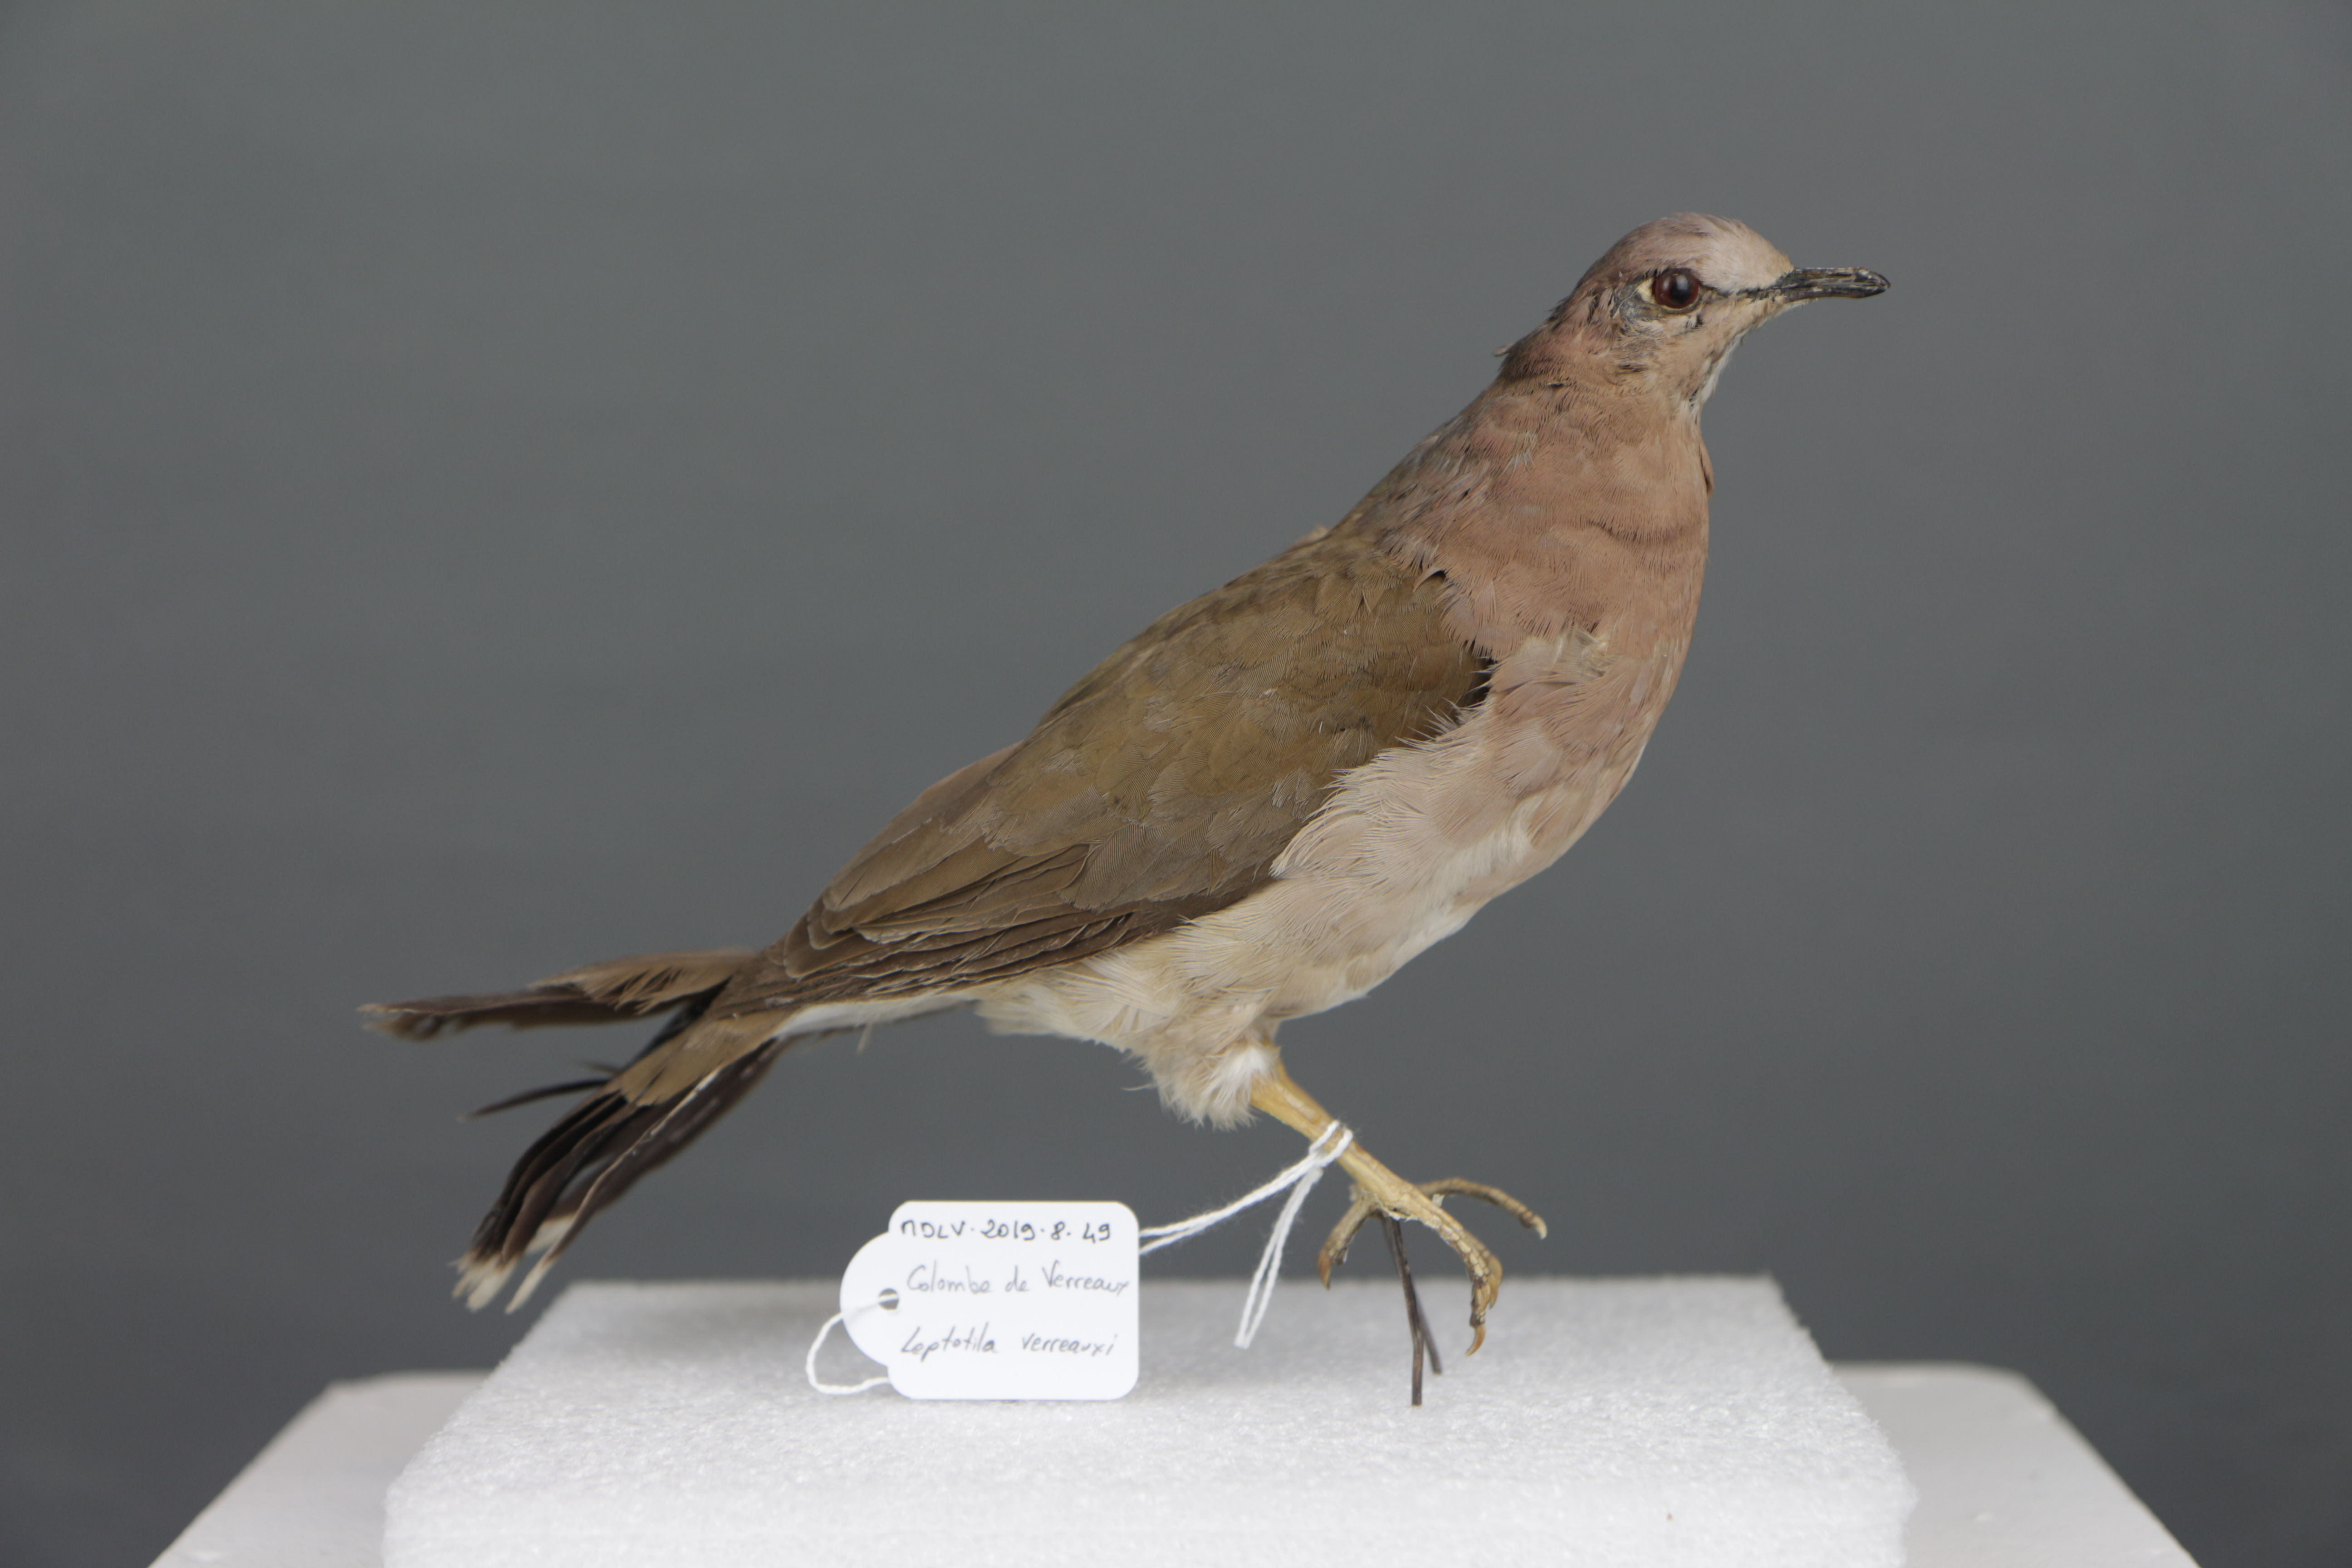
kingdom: Animalia
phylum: Chordata
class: Aves
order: Columbiformes
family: Columbidae
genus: Leptotila
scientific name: Leptotila verreauxi
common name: White-tipped dove
